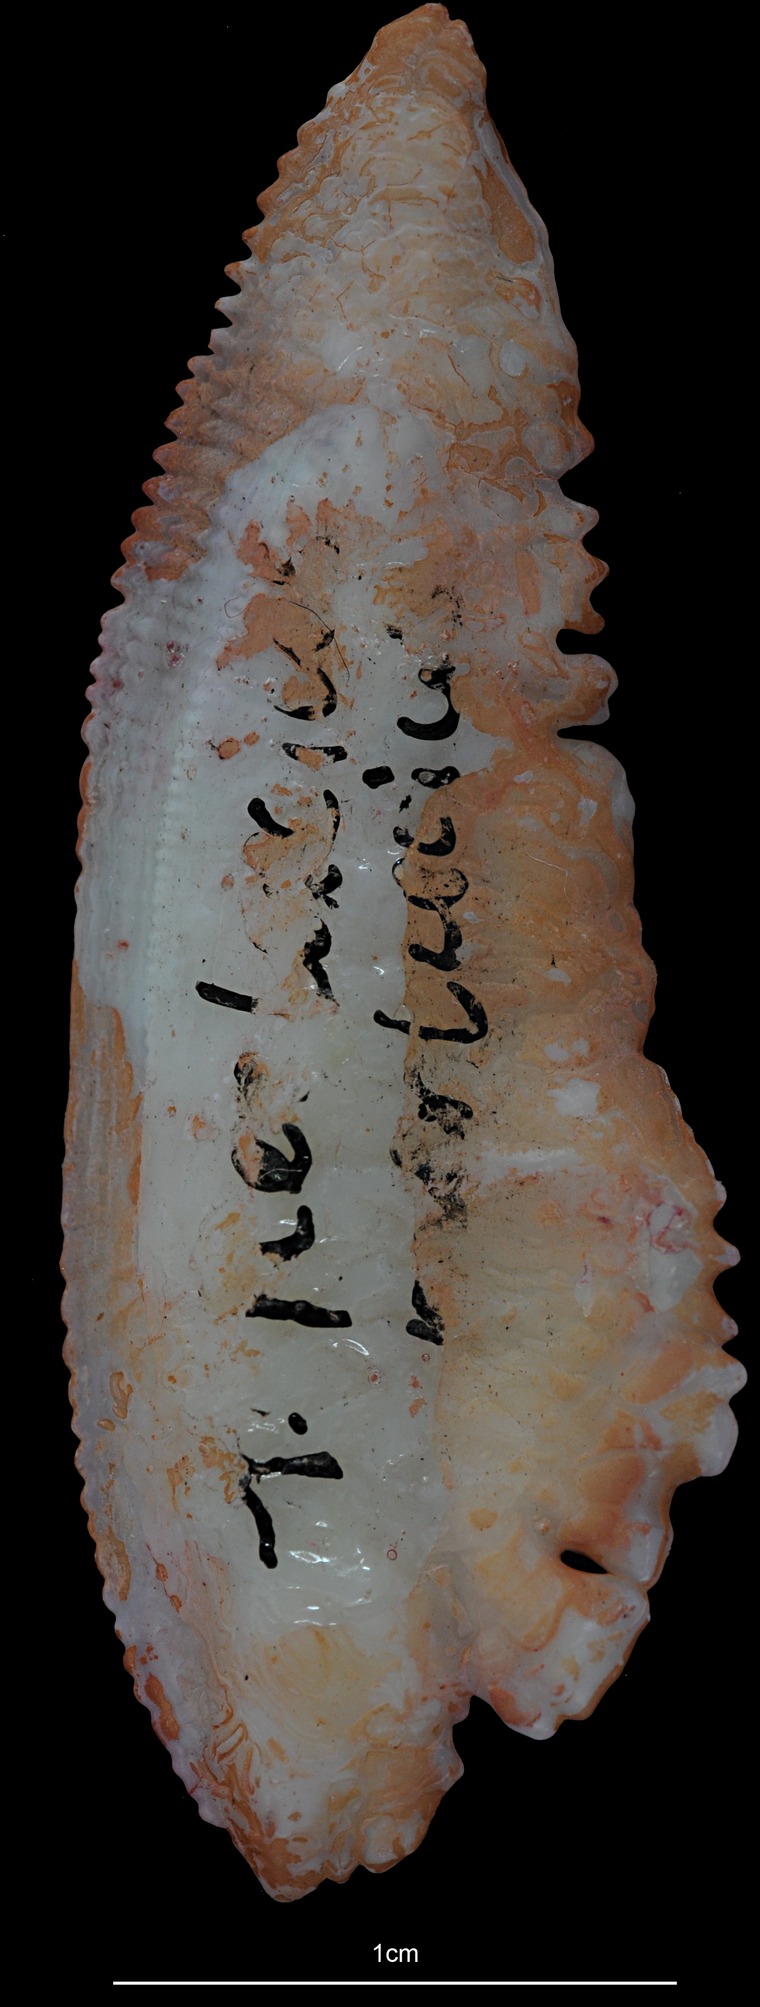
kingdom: Animalia
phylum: Chordata
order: Gadiformes
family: Merlucciidae
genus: Merluccius
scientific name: Merluccius merluccius
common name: European hake
